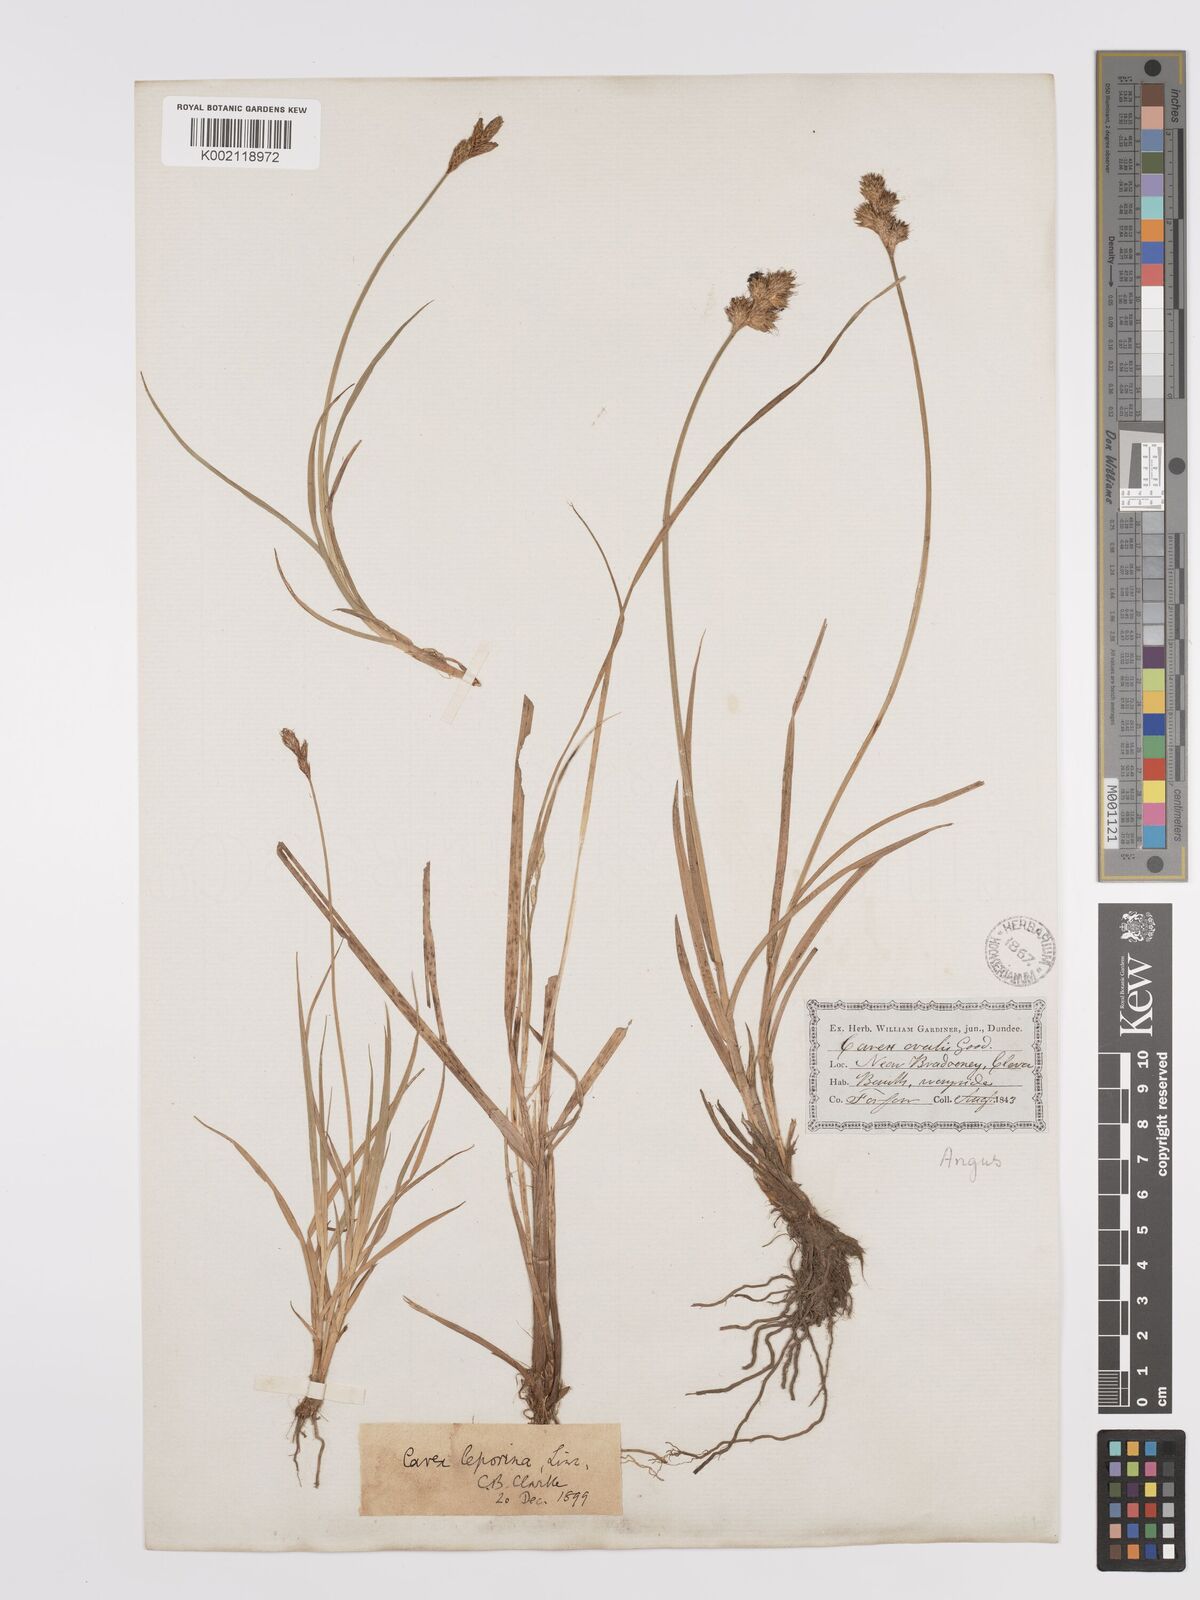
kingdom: Plantae
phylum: Tracheophyta
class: Liliopsida
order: Poales
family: Cyperaceae
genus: Carex
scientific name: Carex leporina
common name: Oval sedge
